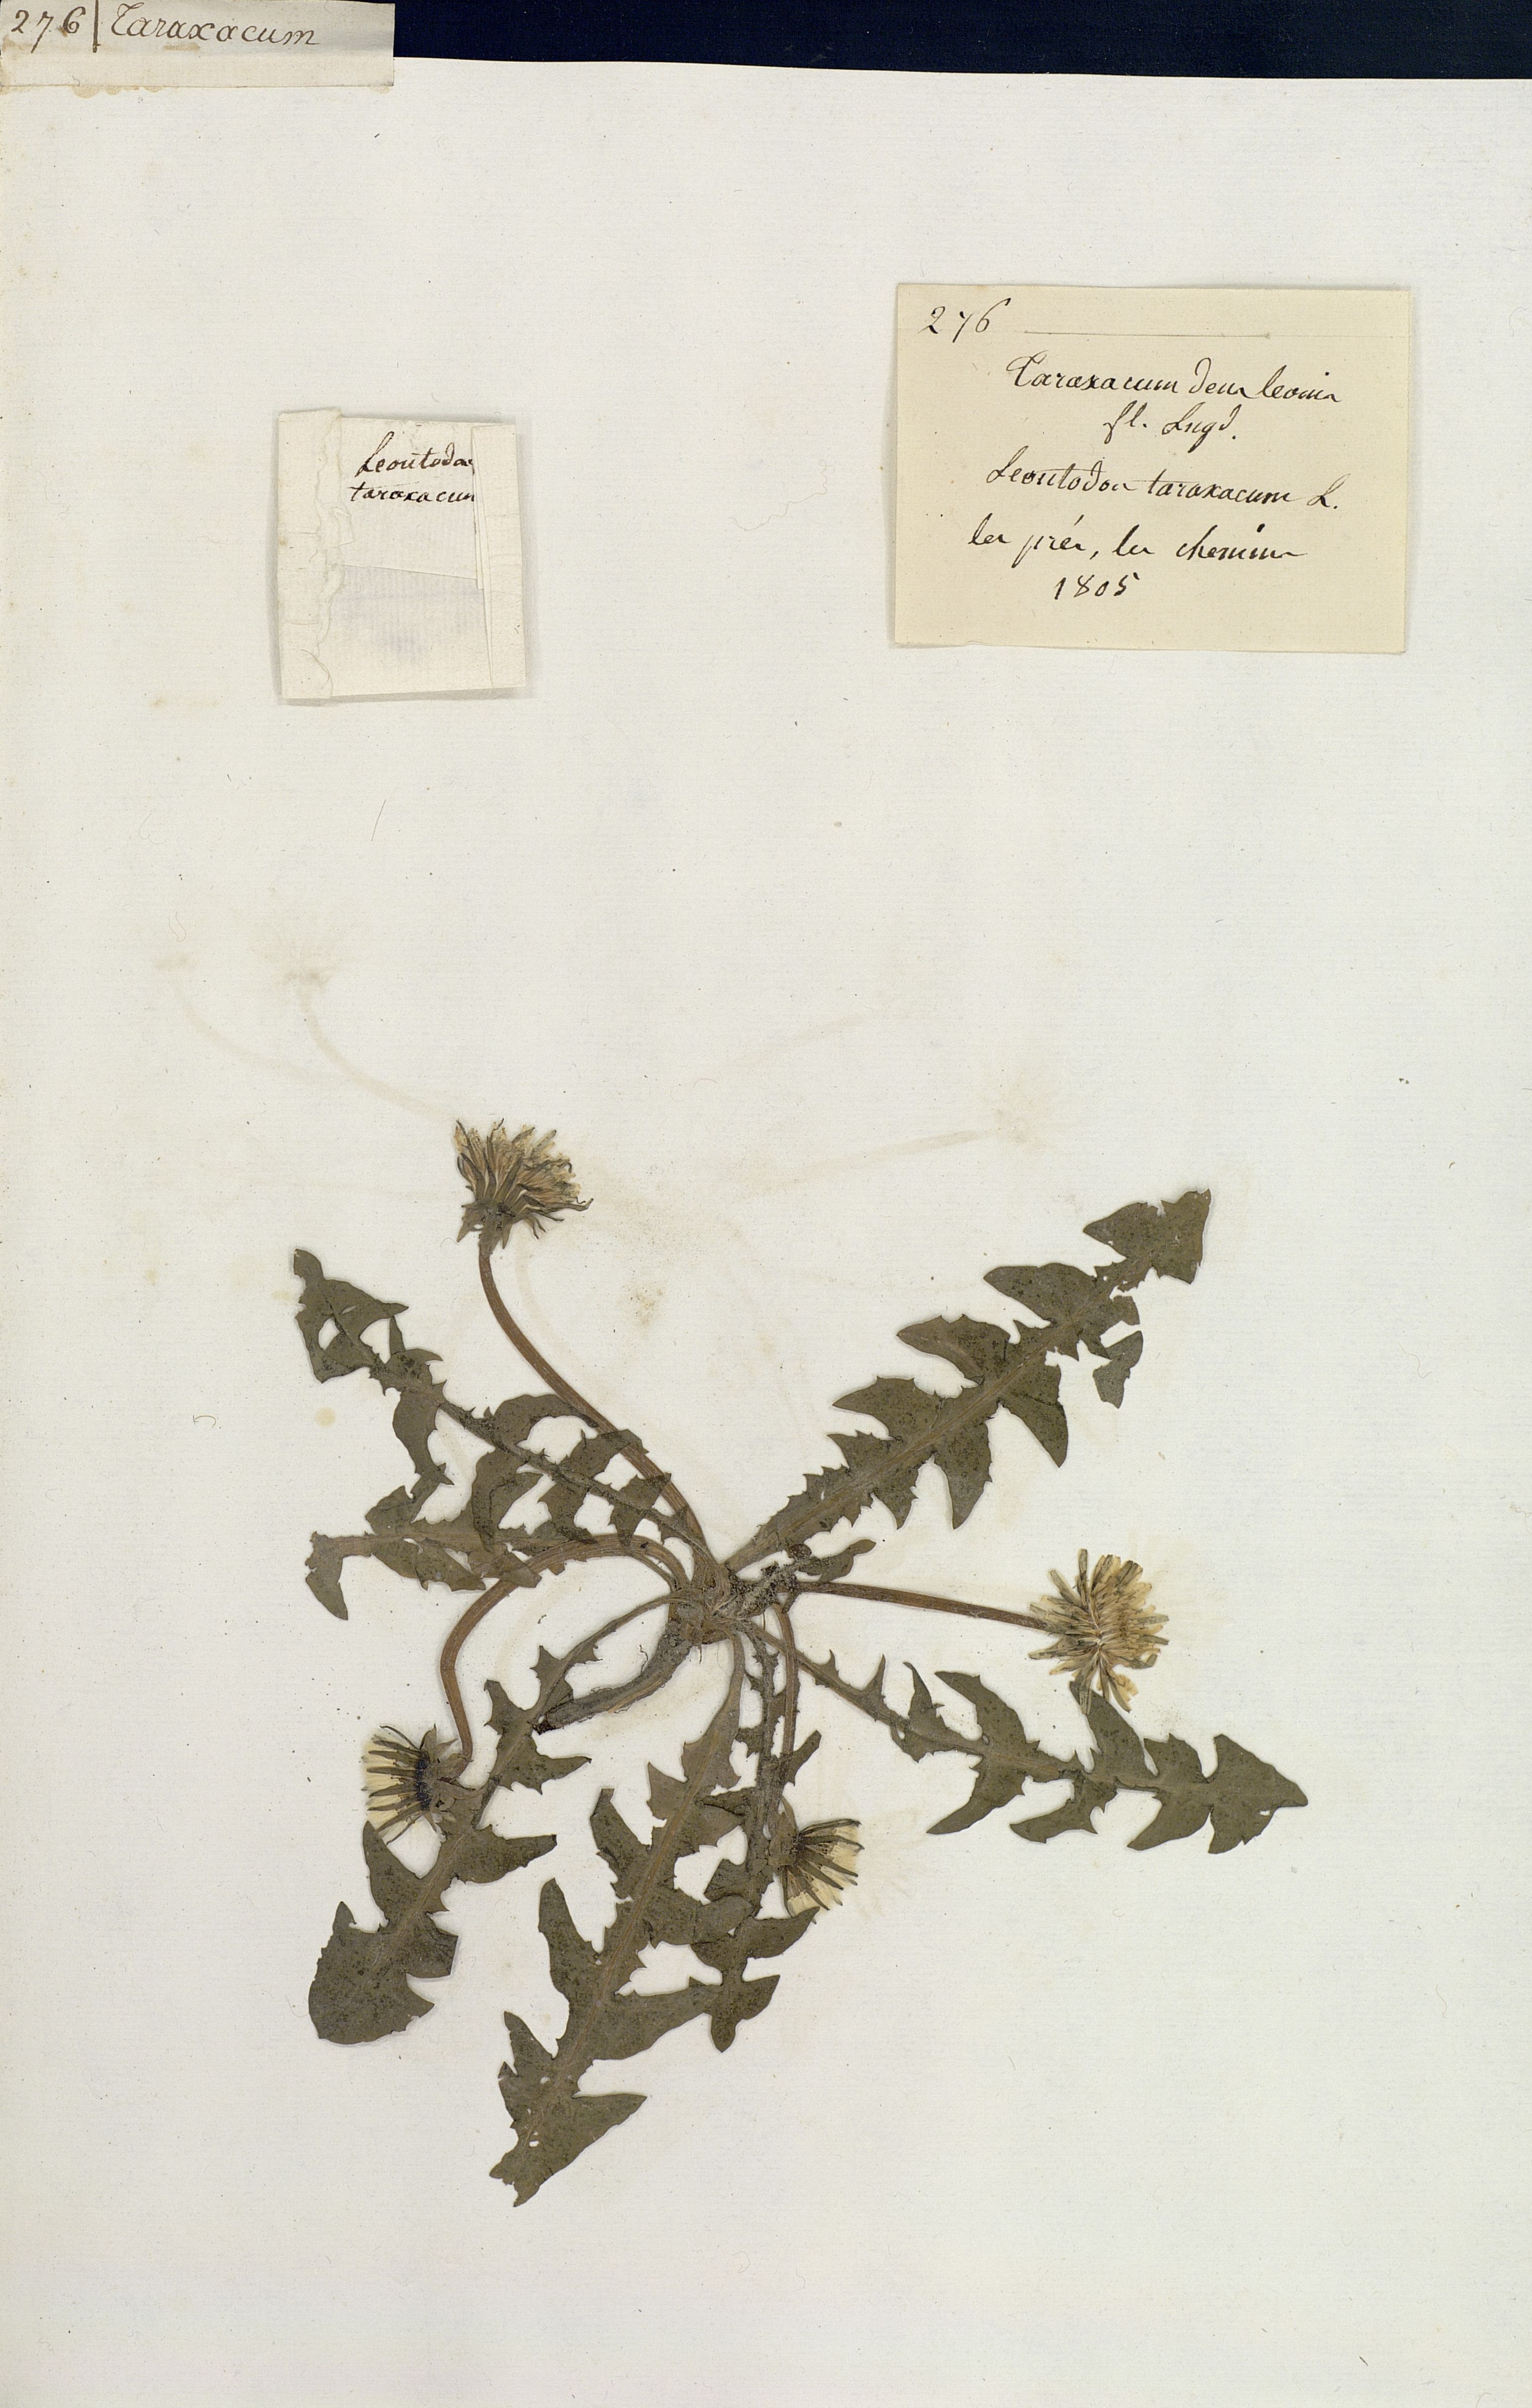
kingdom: Plantae
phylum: Tracheophyta
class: Magnoliopsida
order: Asterales
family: Asteraceae
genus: Taraxacum
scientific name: Taraxacum officinale
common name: Common dandelion
